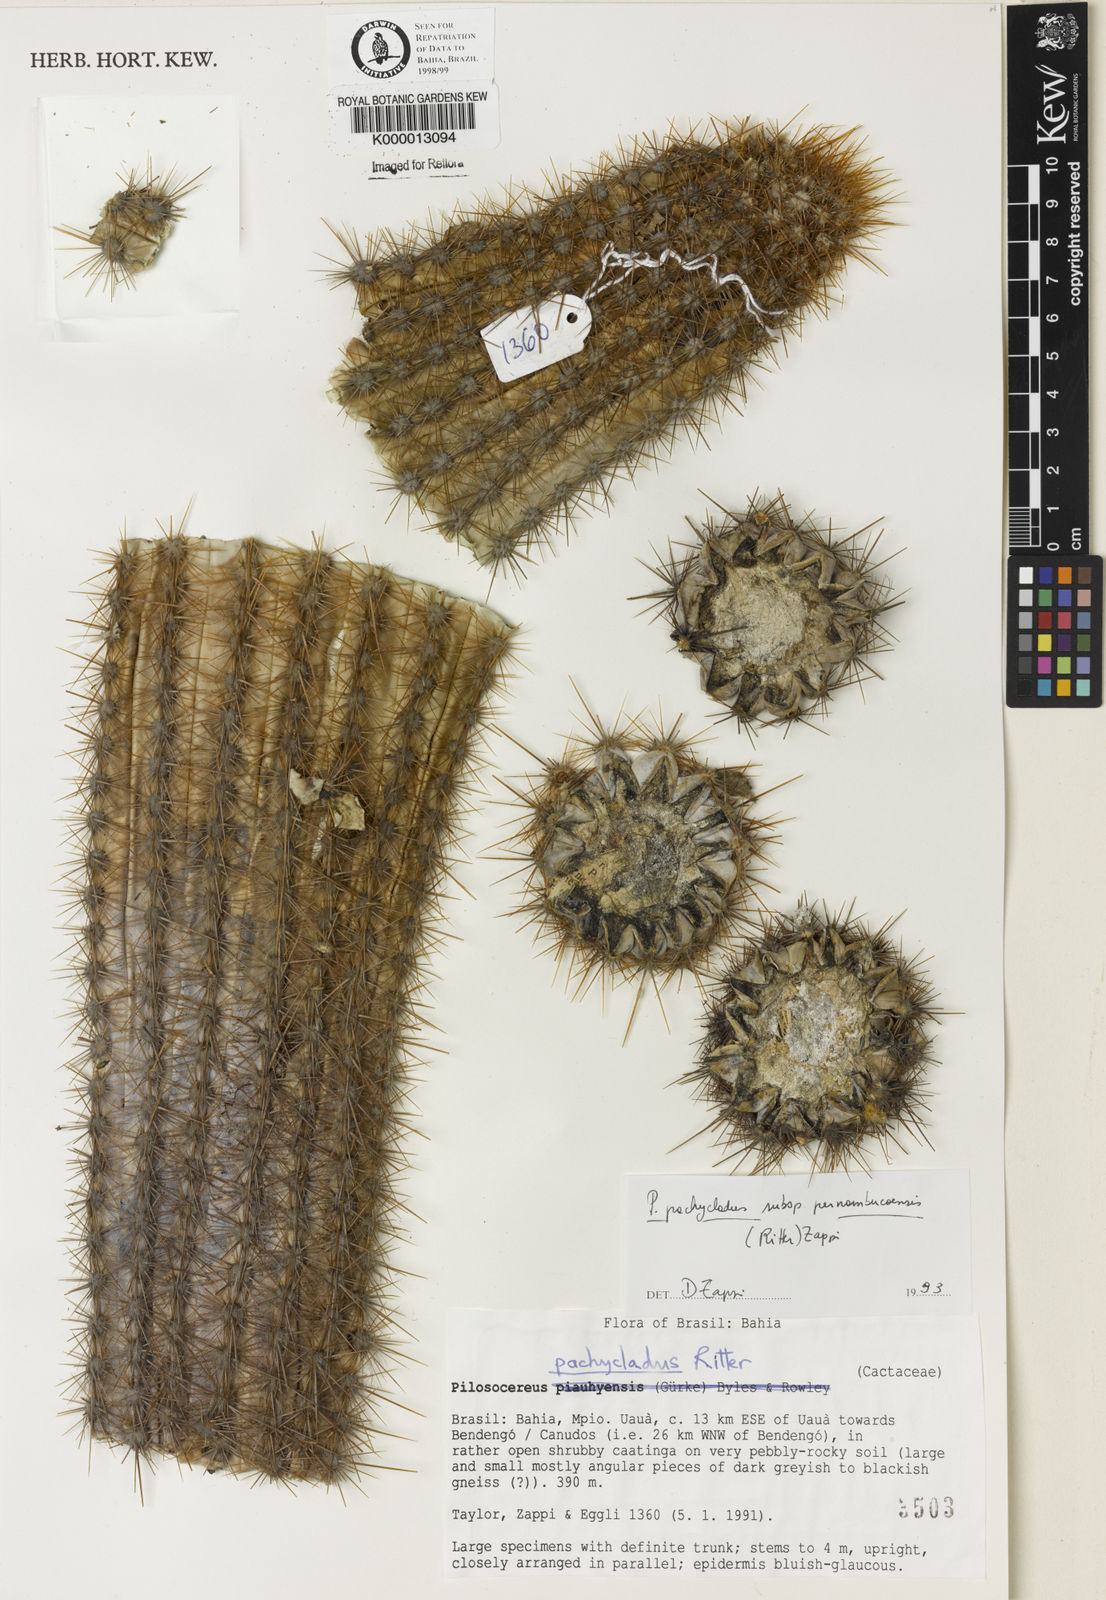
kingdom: Plantae
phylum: Tracheophyta
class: Magnoliopsida
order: Caryophyllales
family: Cactaceae
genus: Pilosocereus
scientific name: Pilosocereus pachycladus
